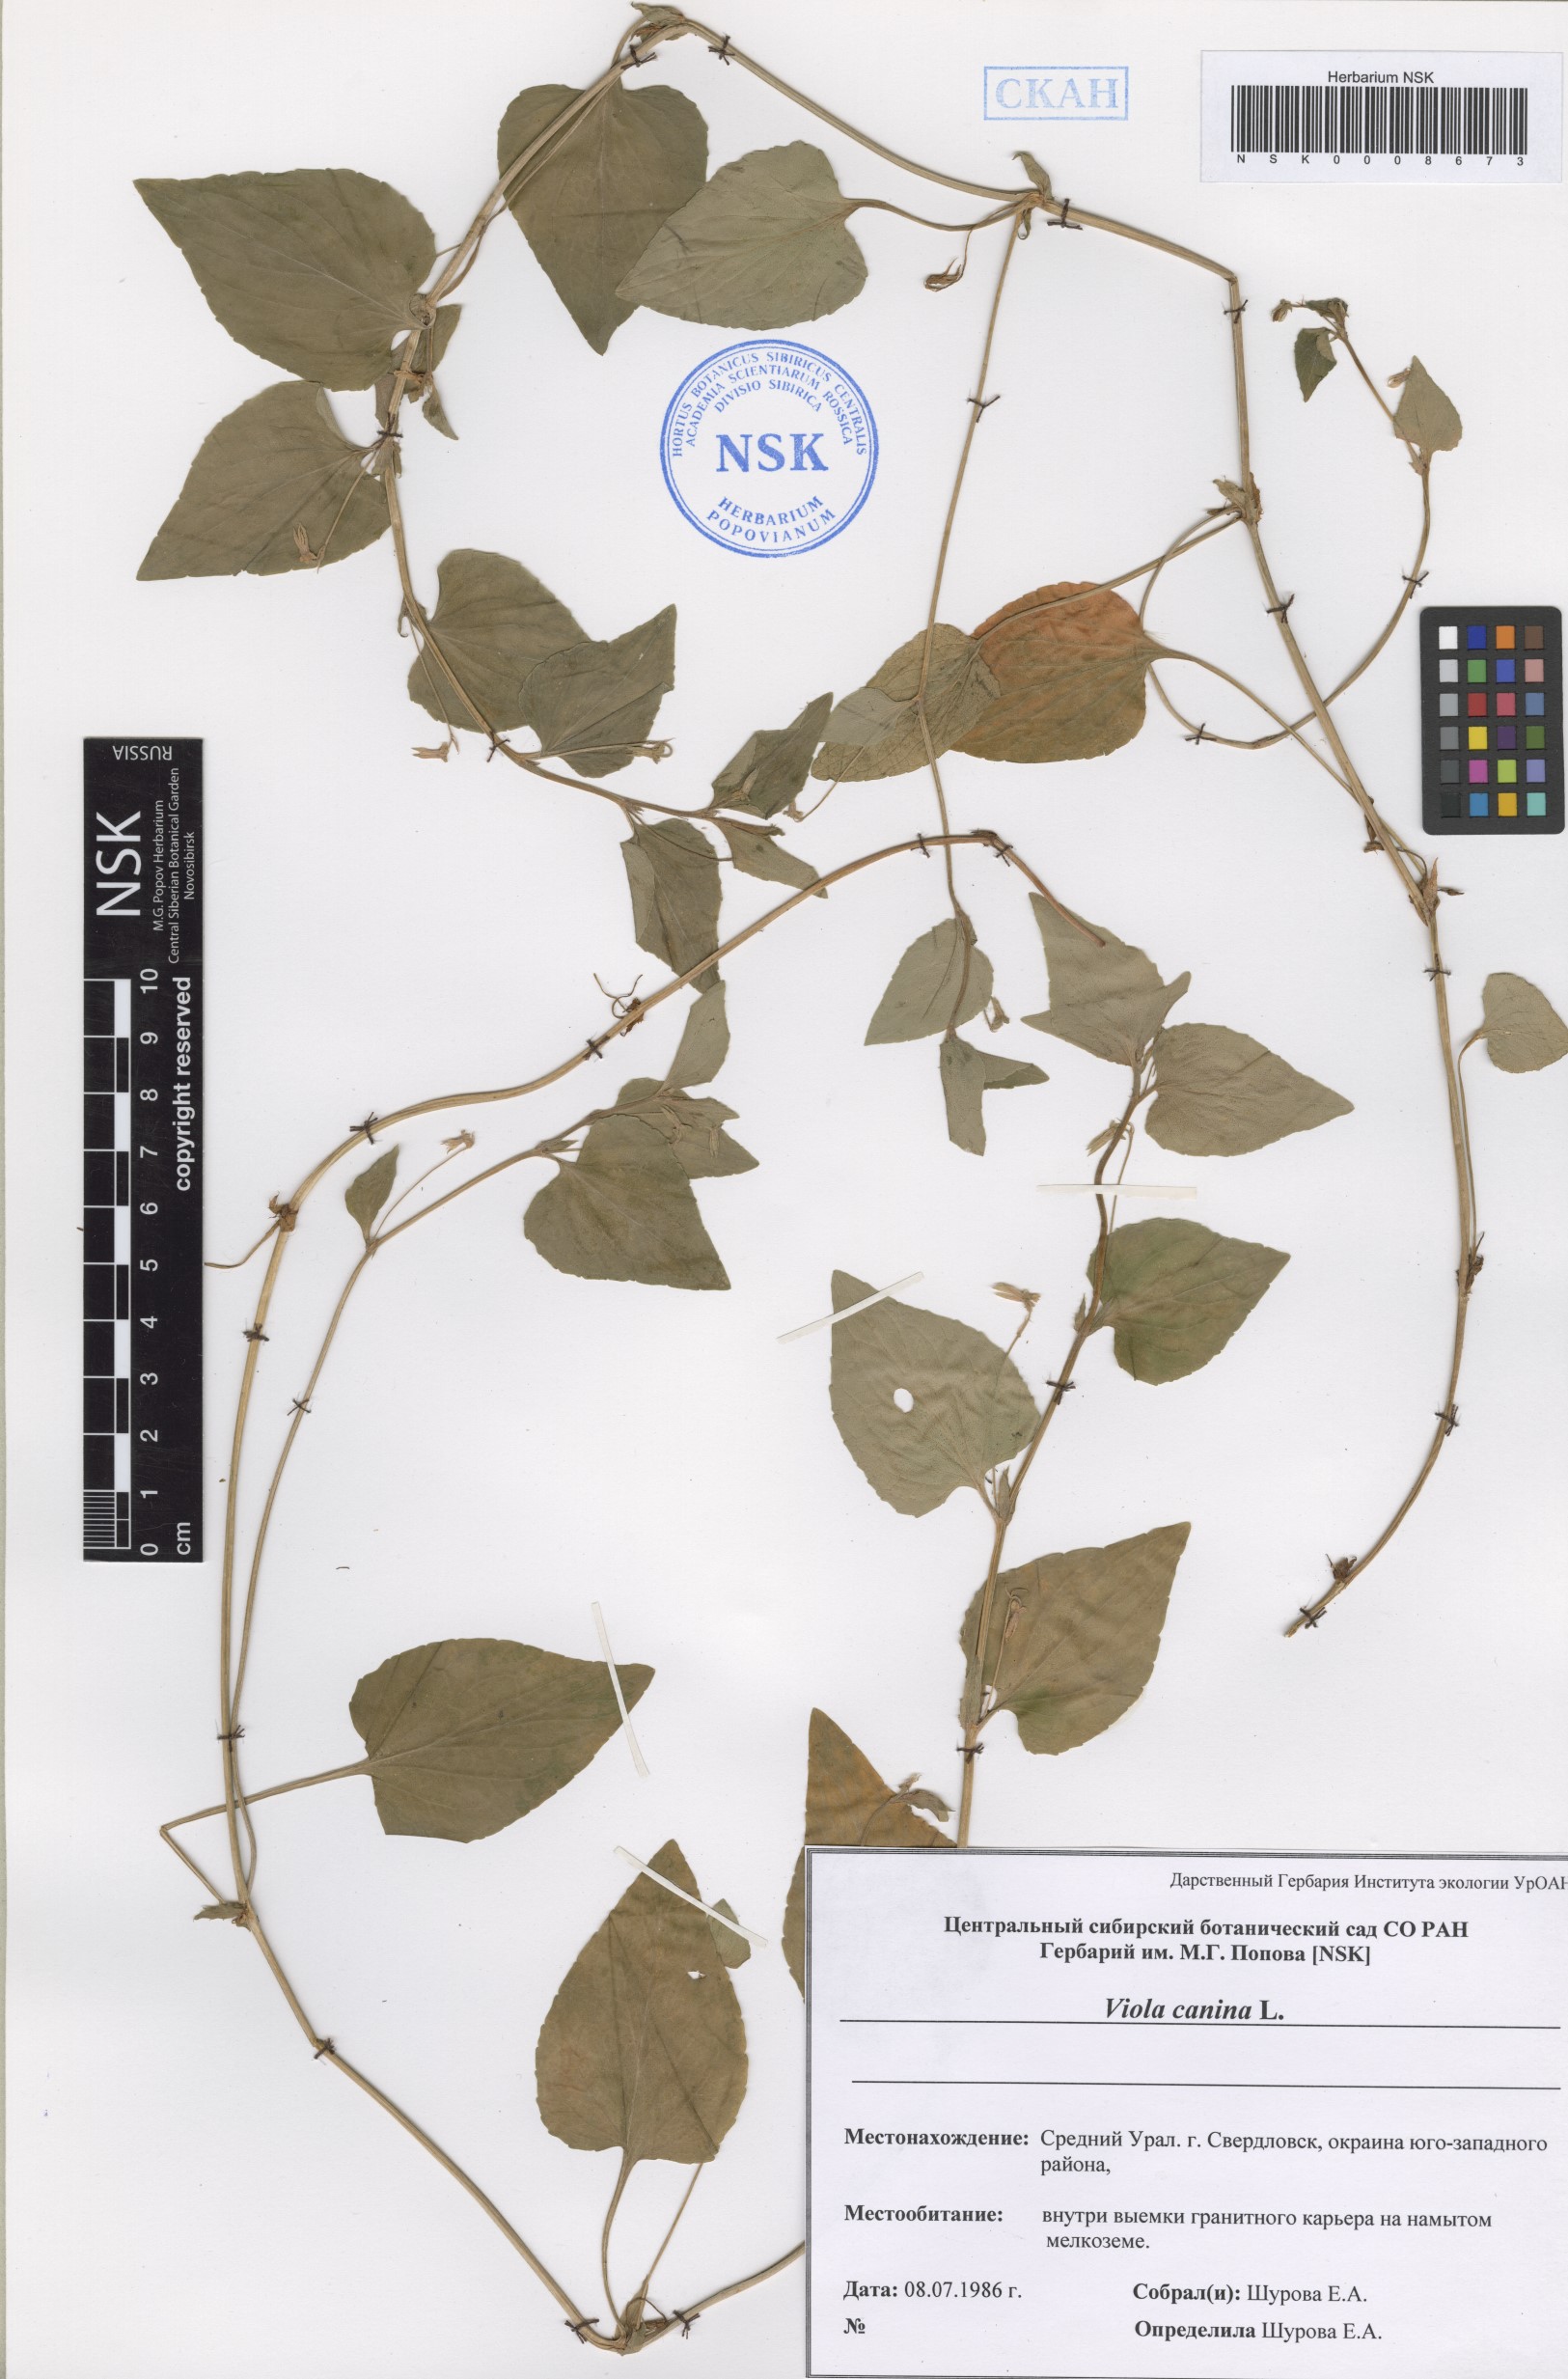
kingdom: Plantae
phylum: Tracheophyta
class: Magnoliopsida
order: Malpighiales
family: Violaceae
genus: Viola
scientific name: Viola canina
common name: Heath dog-violet
